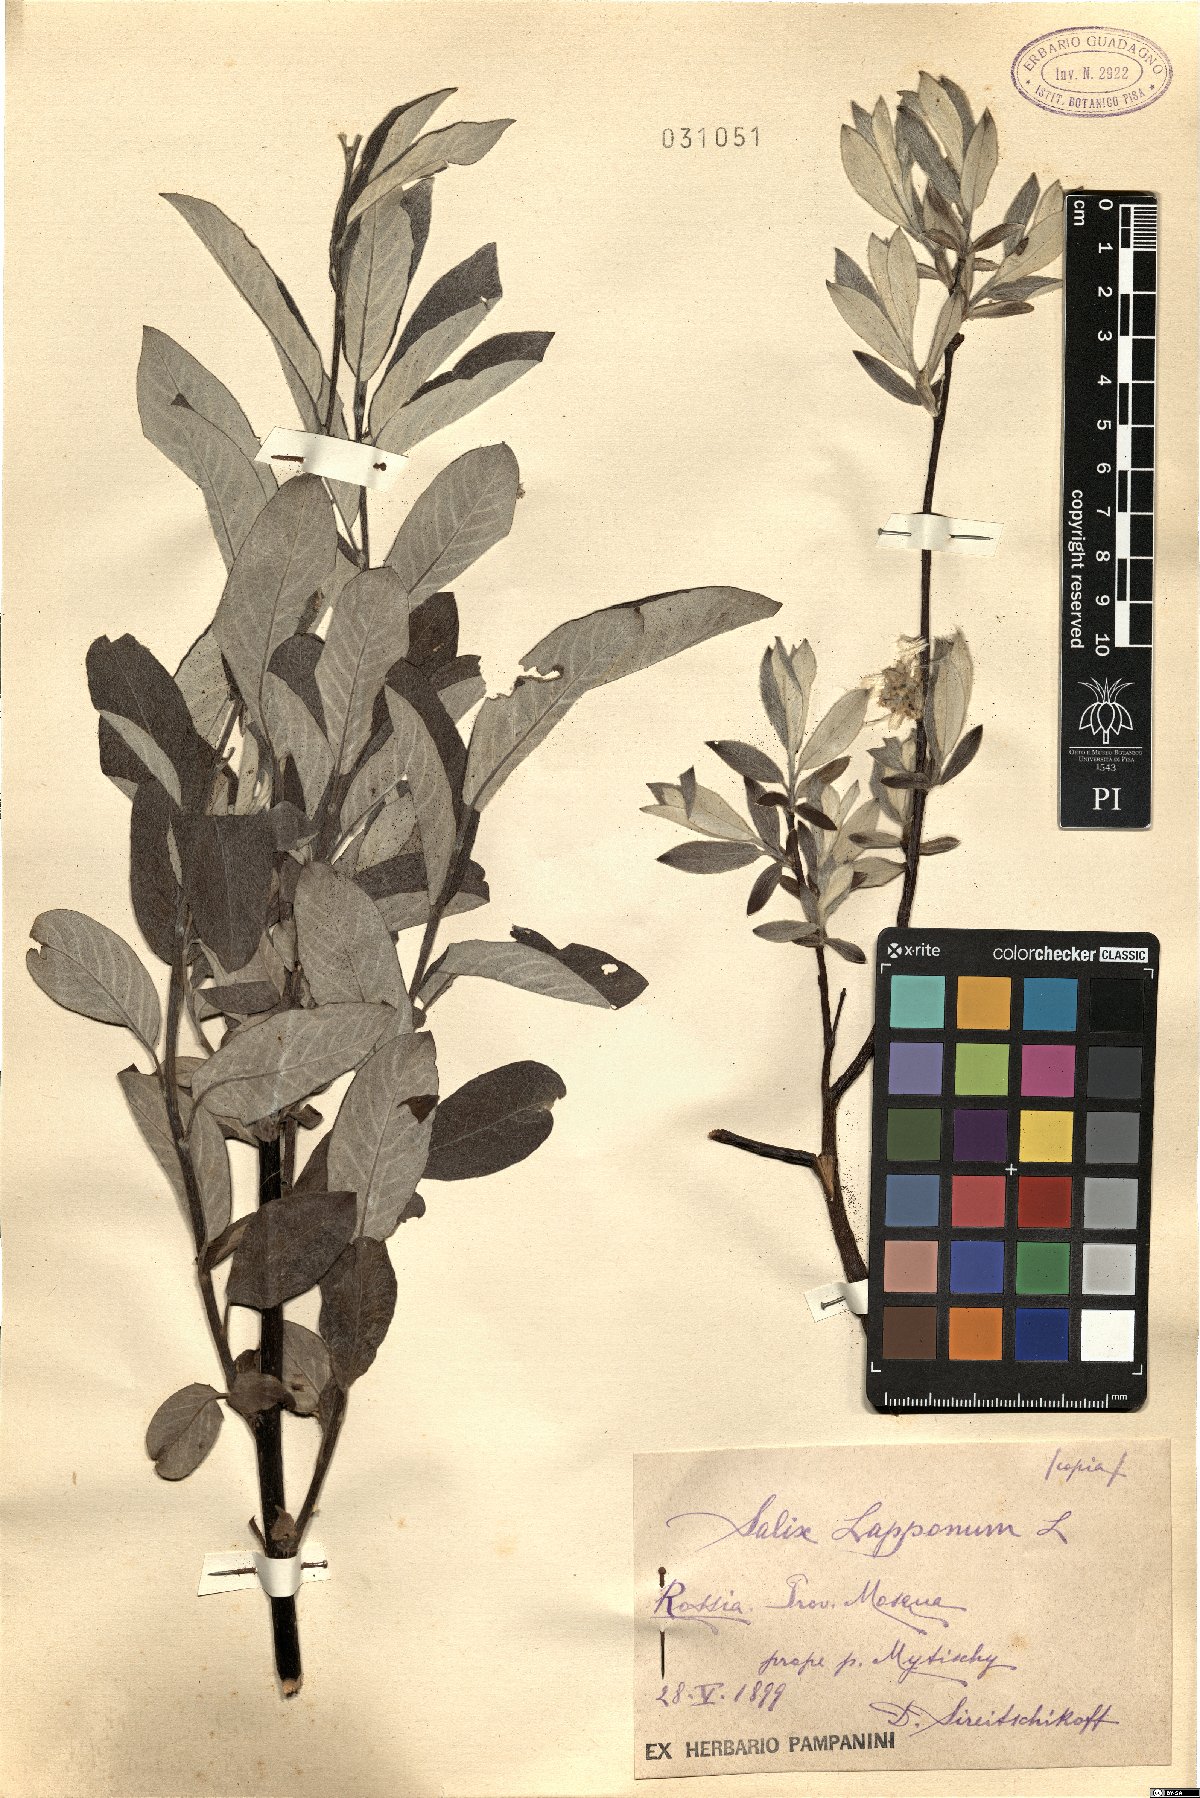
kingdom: Plantae
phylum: Tracheophyta
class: Magnoliopsida
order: Malpighiales
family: Salicaceae
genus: Salix
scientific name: Salix lapponum
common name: Downy willow
